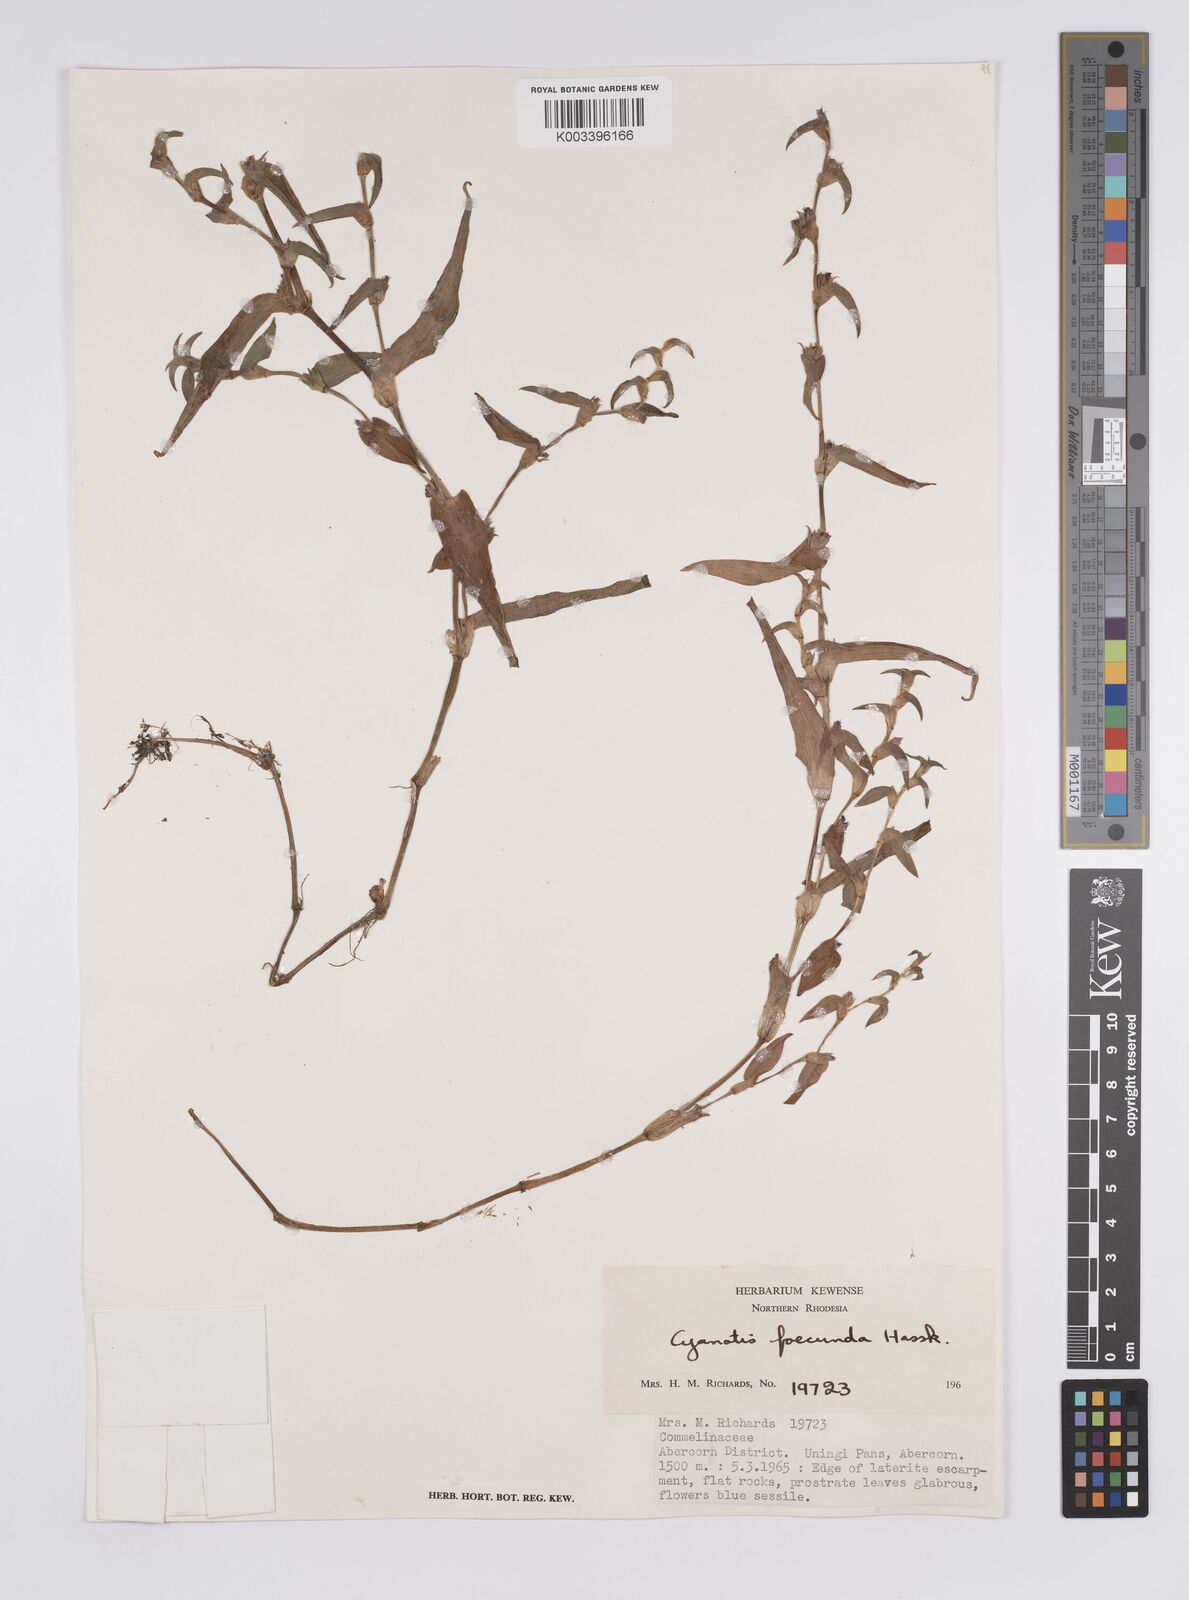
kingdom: Plantae
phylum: Tracheophyta
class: Liliopsida
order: Commelinales
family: Commelinaceae
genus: Cyanotis
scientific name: Cyanotis foecunda
